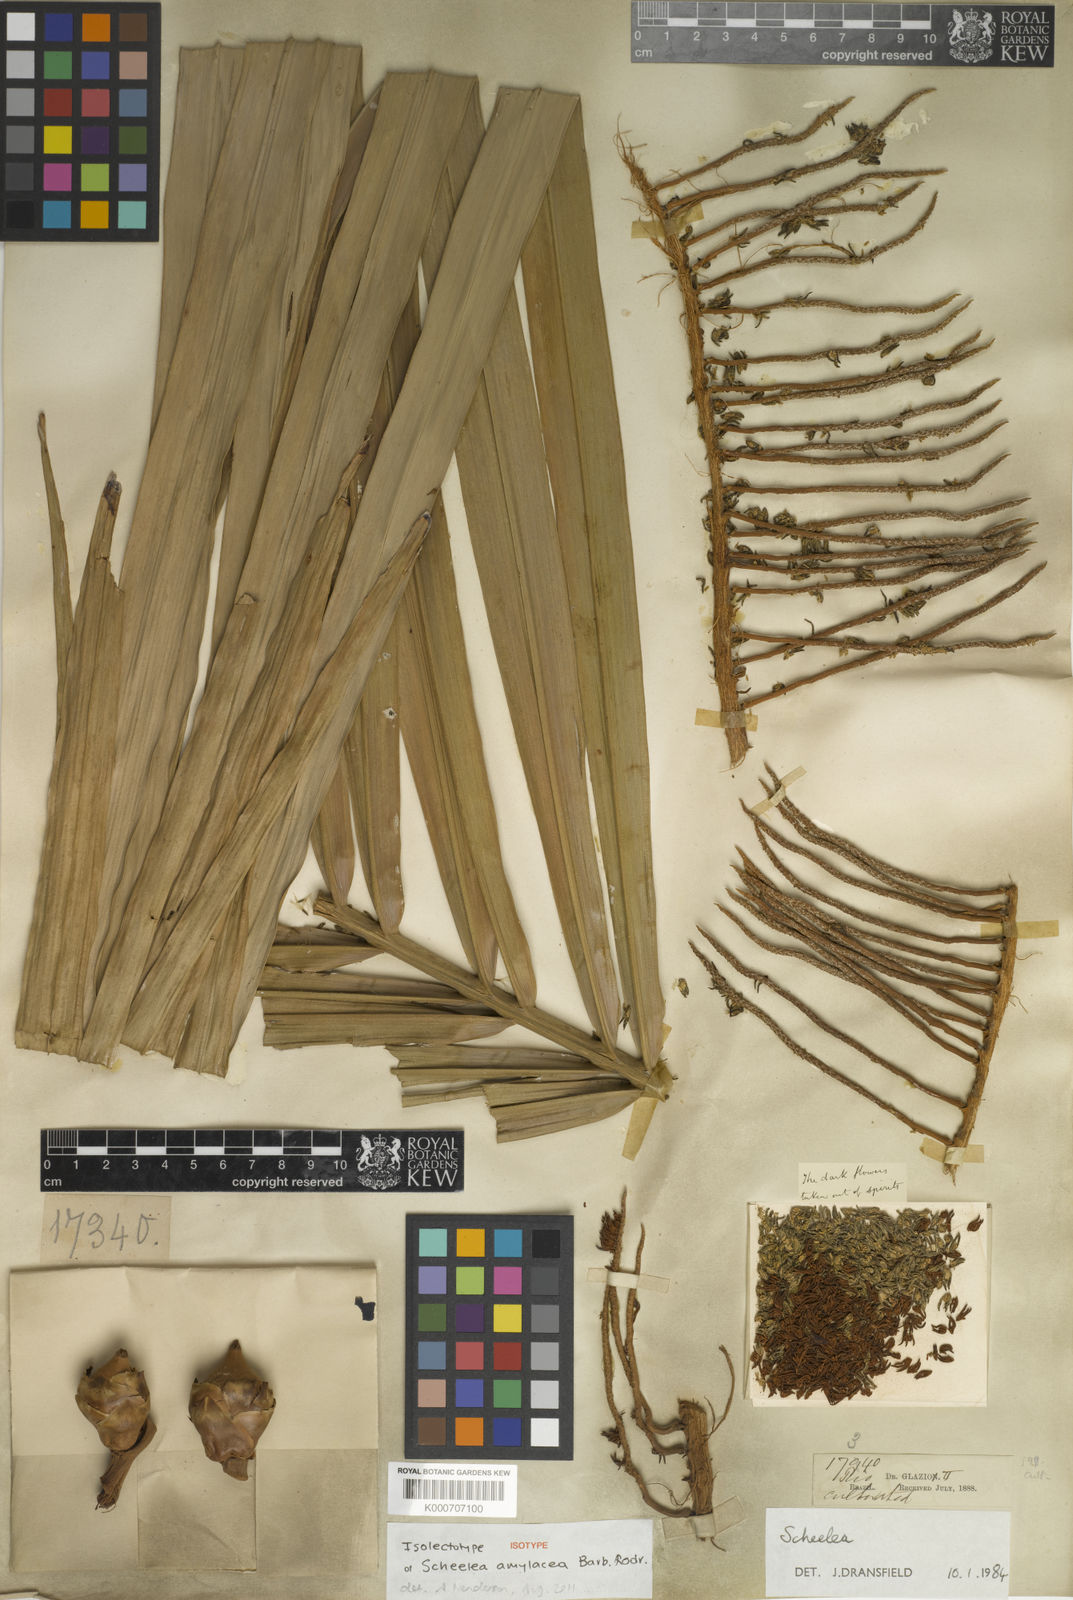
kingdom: Plantae
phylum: Tracheophyta
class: Liliopsida
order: Arecales
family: Arecaceae
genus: Attalea
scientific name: Attalea amylacea
